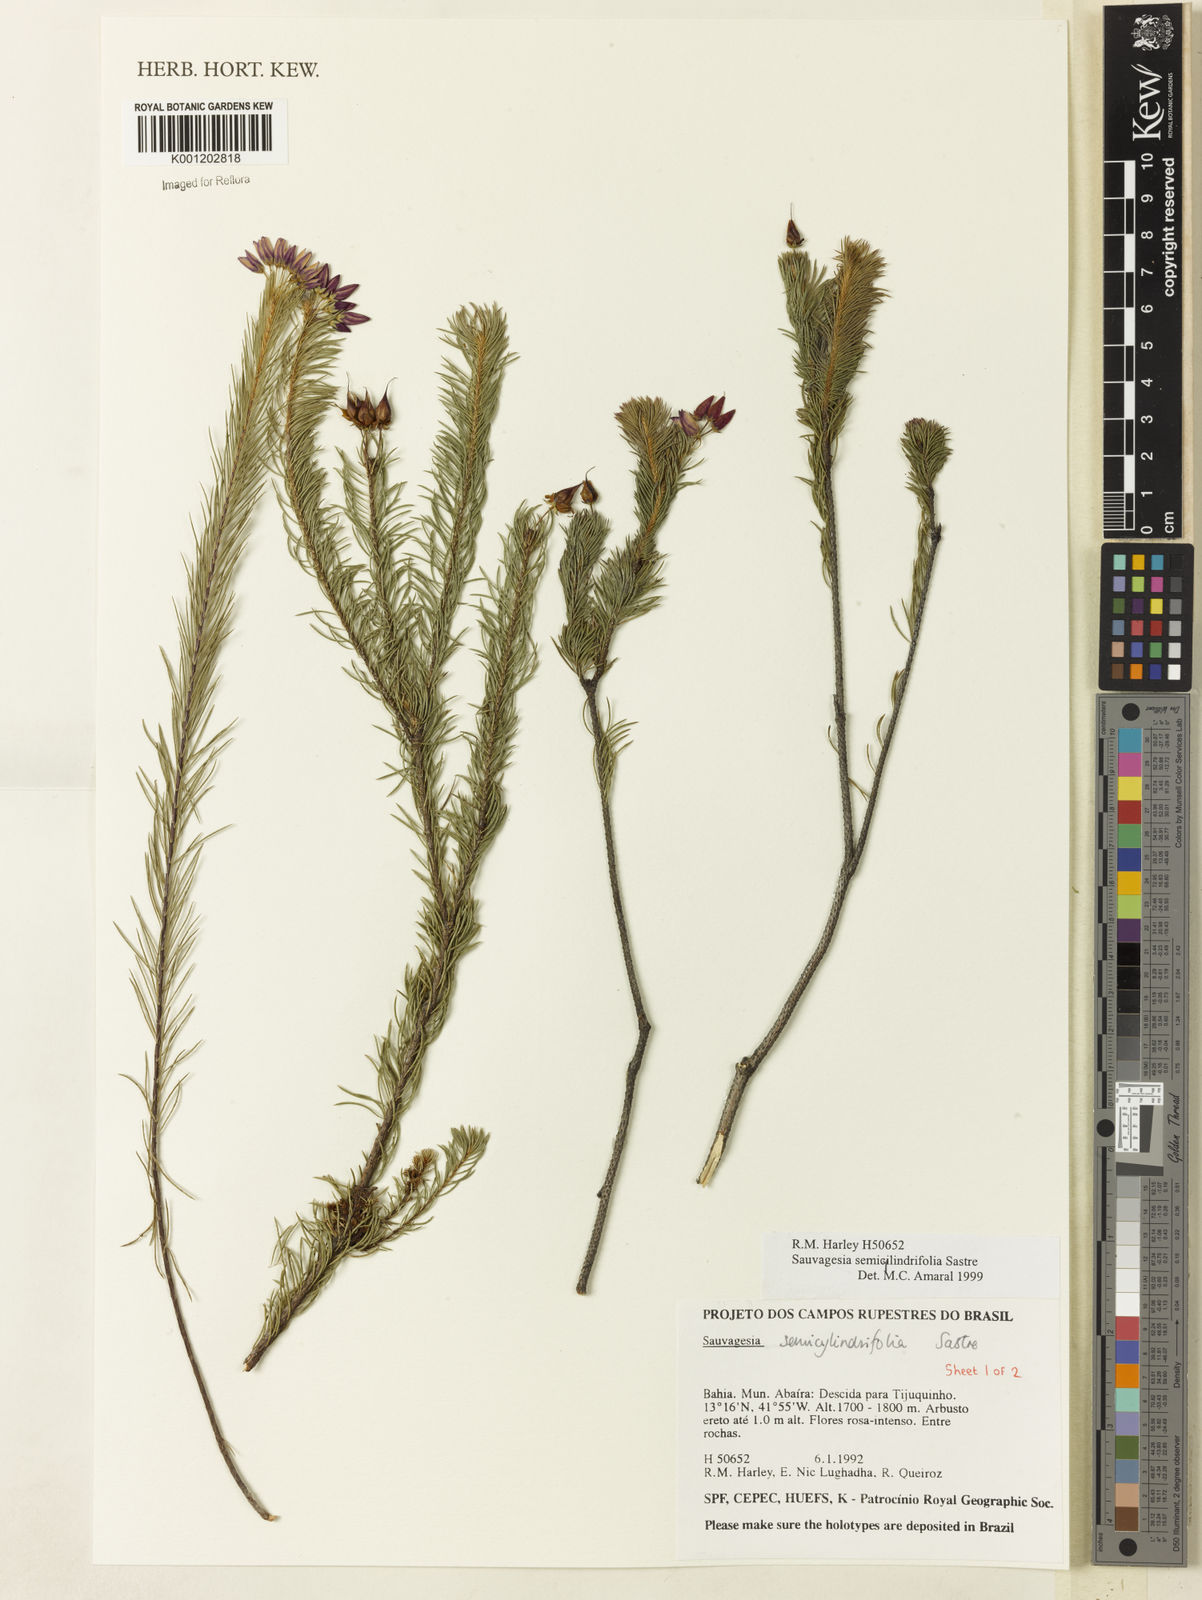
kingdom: Plantae
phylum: Tracheophyta
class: Magnoliopsida
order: Malpighiales
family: Ochnaceae
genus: Sauvagesia
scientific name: Sauvagesia semicylindrifolia
